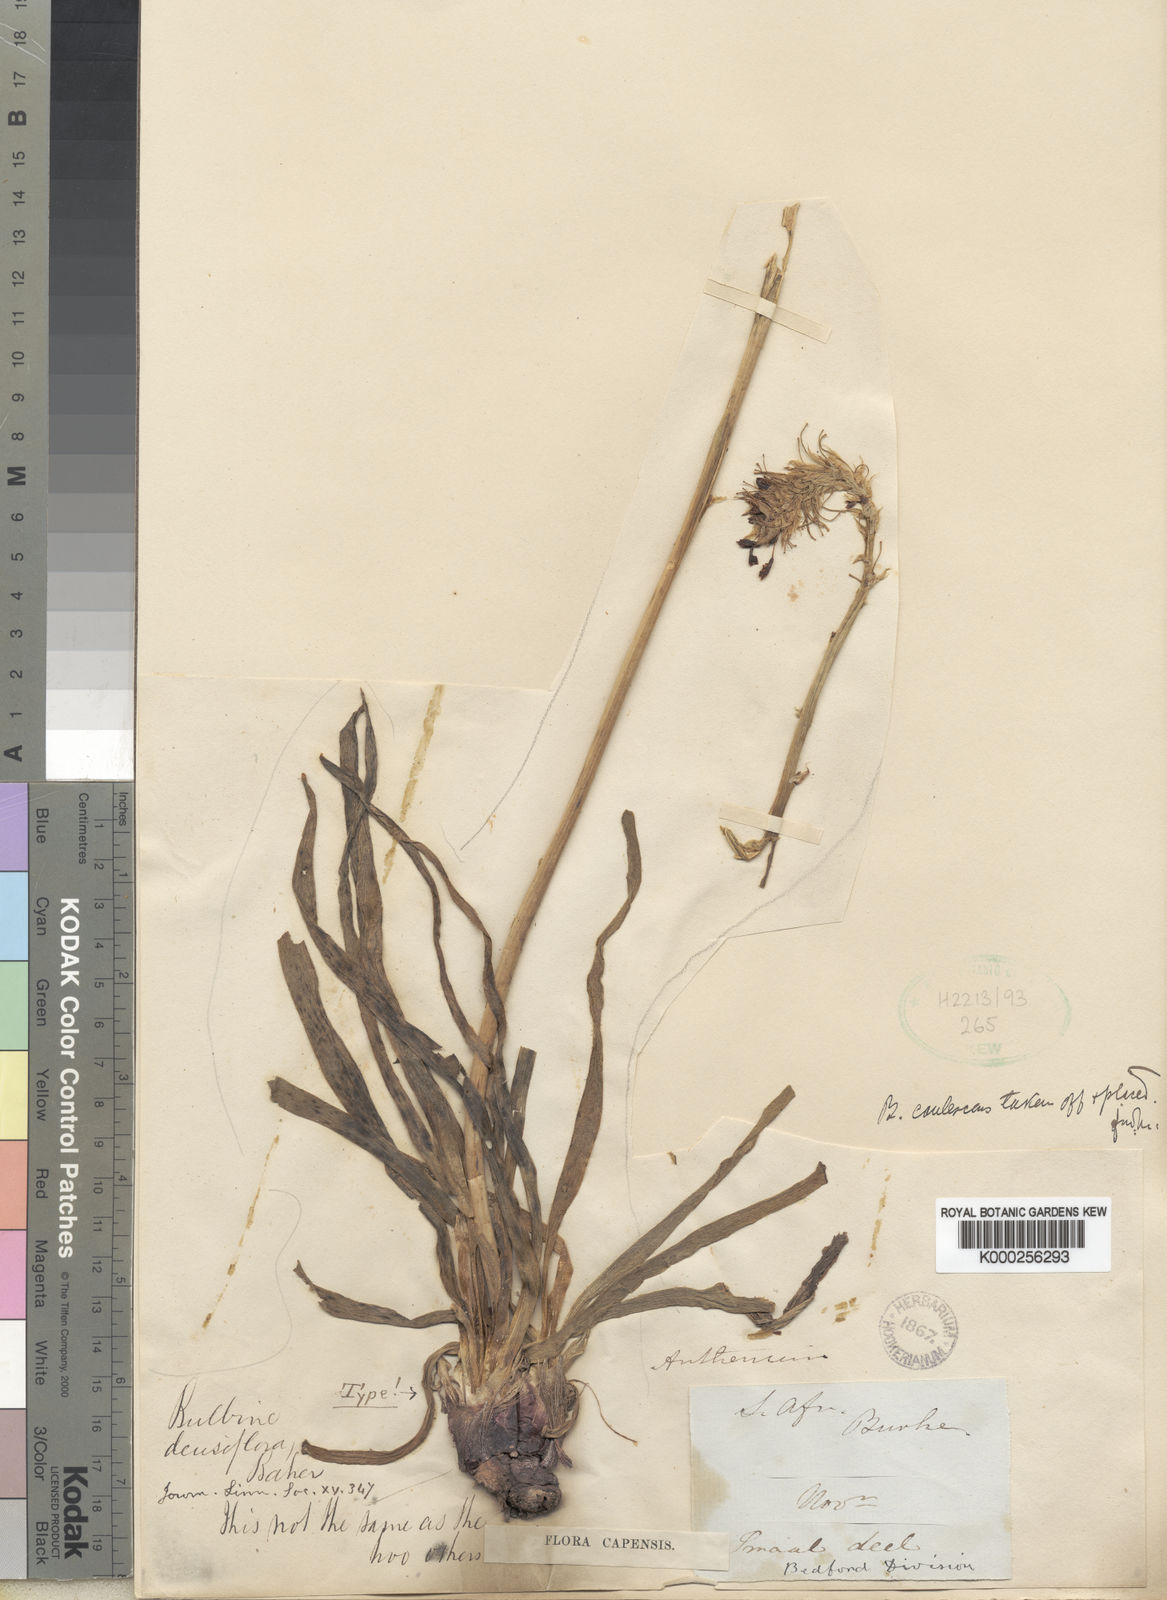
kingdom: Plantae
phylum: Tracheophyta
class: Liliopsida
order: Asparagales
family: Asphodelaceae
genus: Bulbine
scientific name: Bulbine narcissifolia
